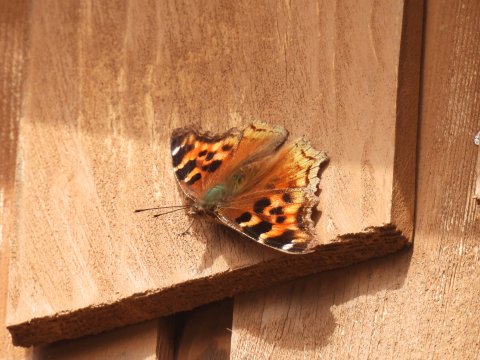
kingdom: Animalia
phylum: Arthropoda
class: Insecta
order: Lepidoptera
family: Nymphalidae
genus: Polygonia
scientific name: Polygonia vaualbum
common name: Compton Tortoiseshell
